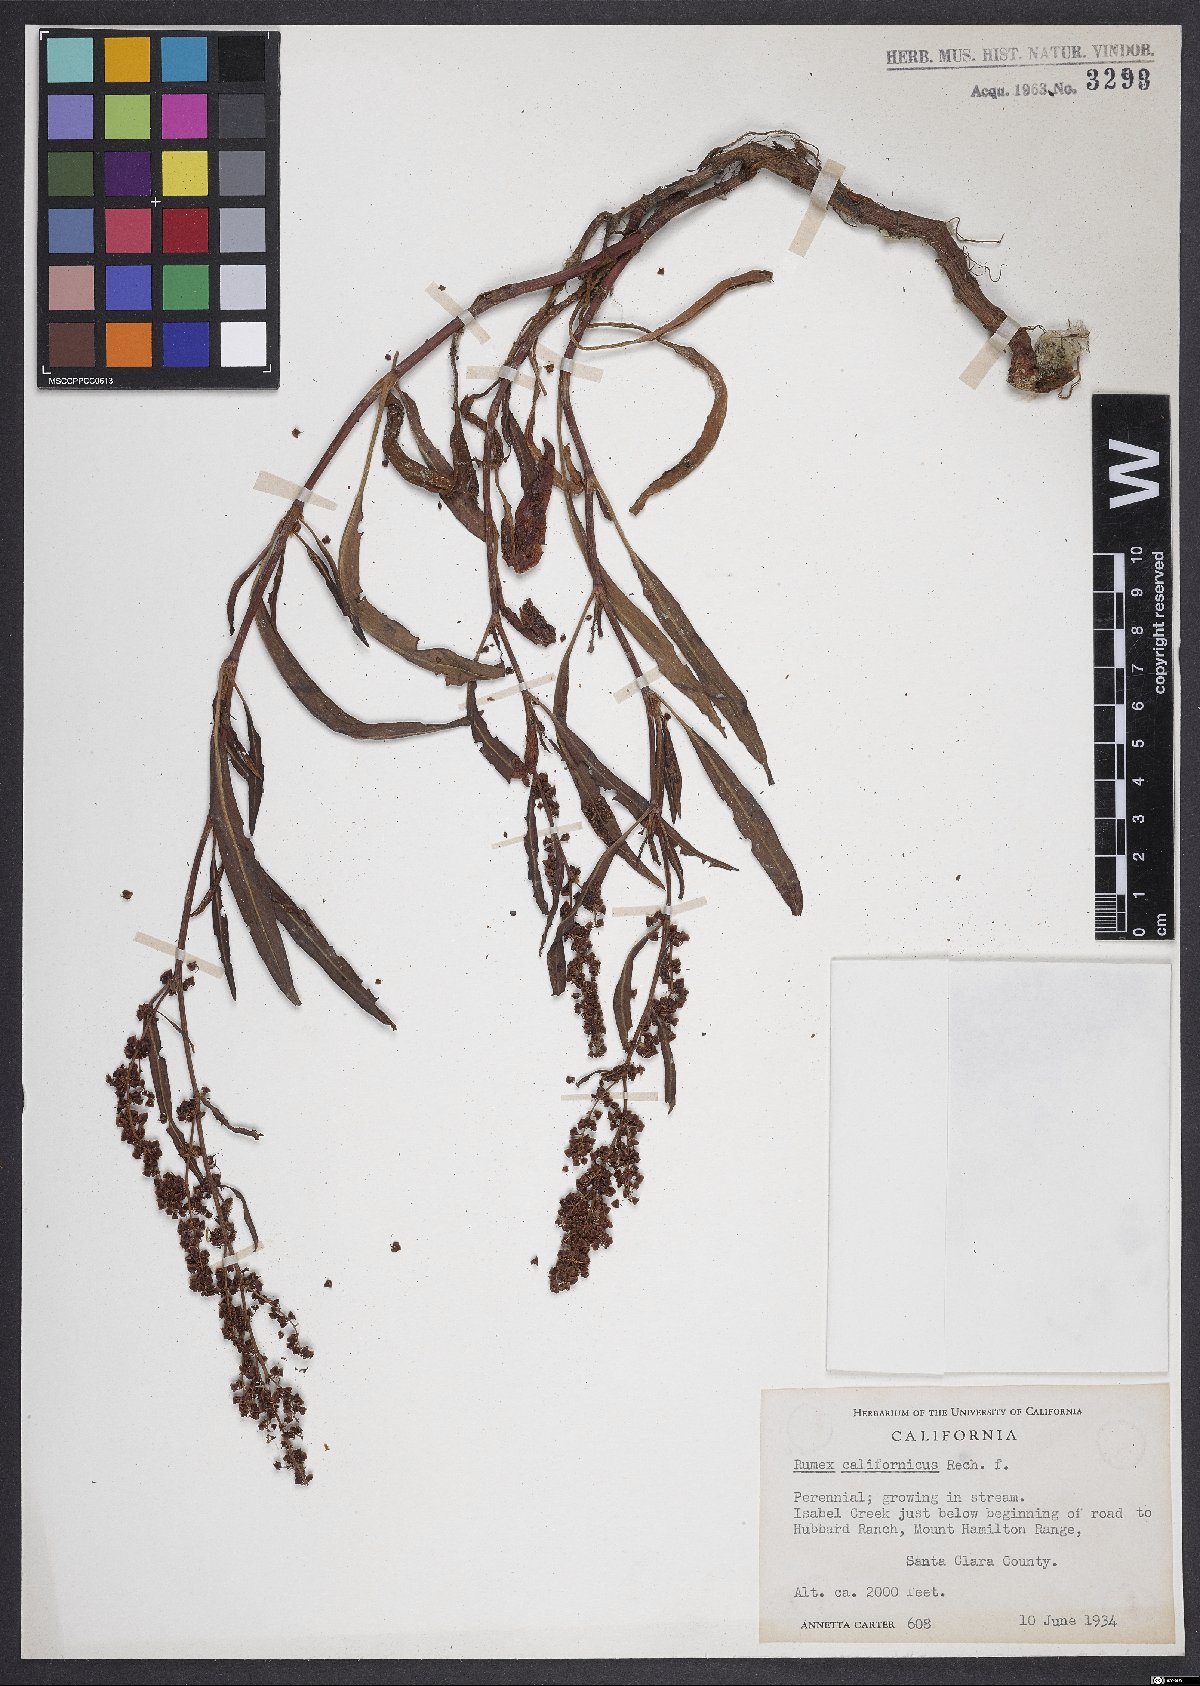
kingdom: Plantae
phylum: Tracheophyta
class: Magnoliopsida
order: Caryophyllales
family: Polygonaceae
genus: Rumex
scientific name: Rumex californicus
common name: California willow dock
